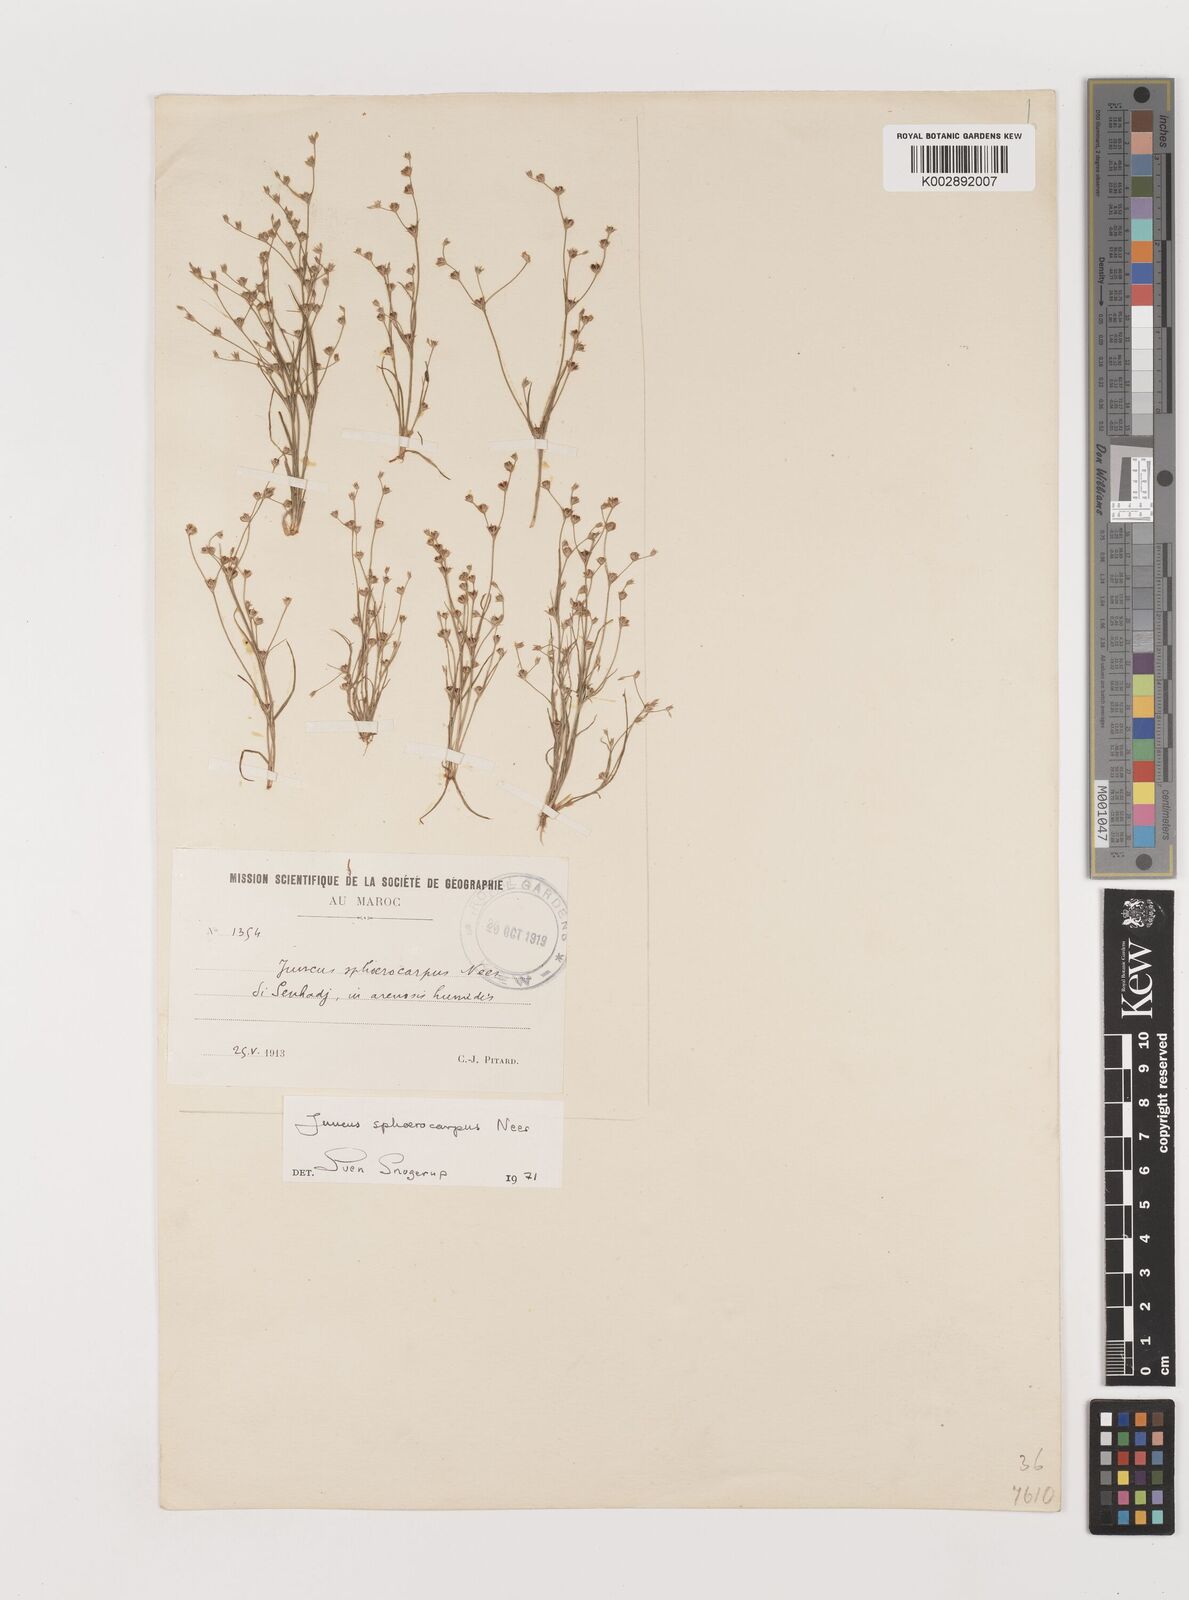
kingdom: Plantae
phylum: Tracheophyta
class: Liliopsida
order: Poales
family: Juncaceae
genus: Juncus
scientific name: Juncus sphaerocarpus
